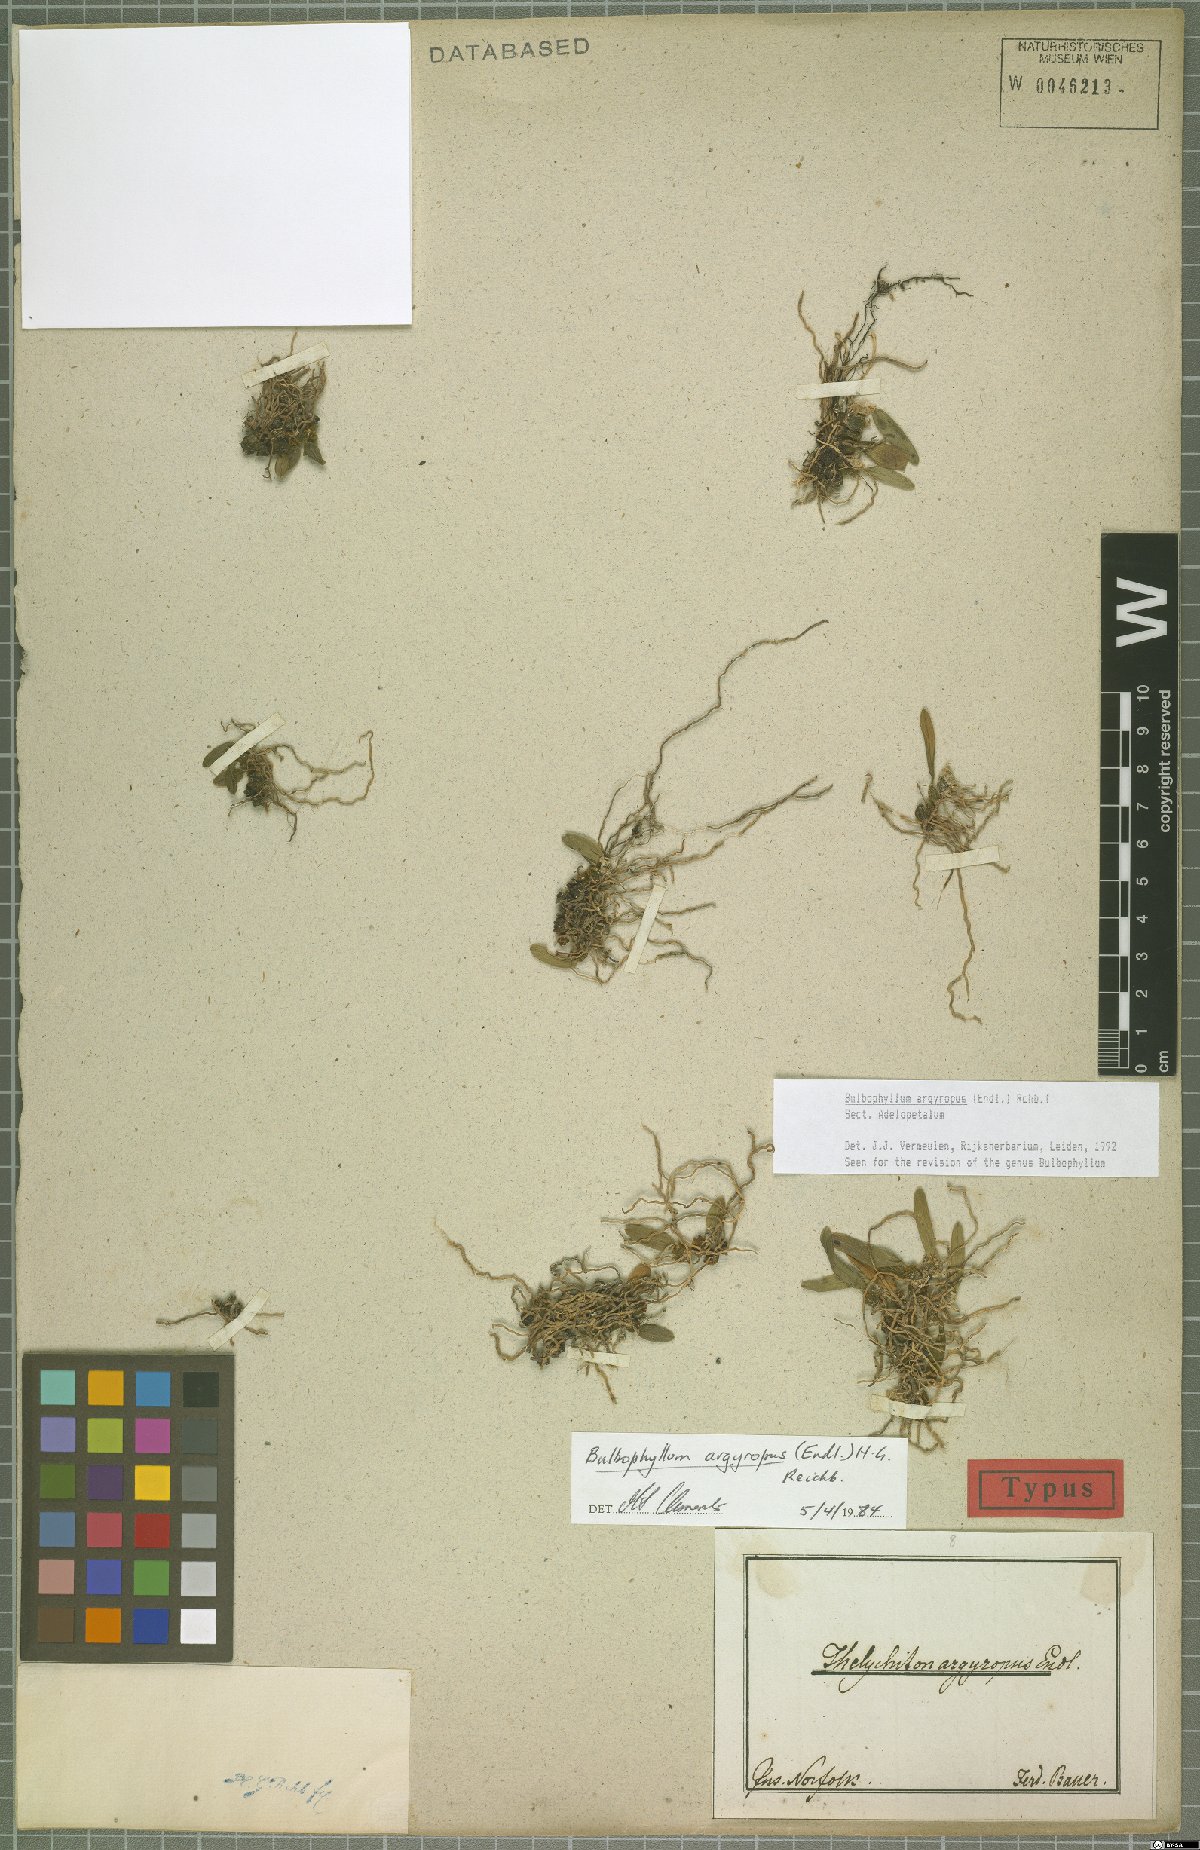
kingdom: Plantae
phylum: Tracheophyta
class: Liliopsida
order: Asparagales
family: Orchidaceae
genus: Bulbophyllum
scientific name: Bulbophyllum argyropus
